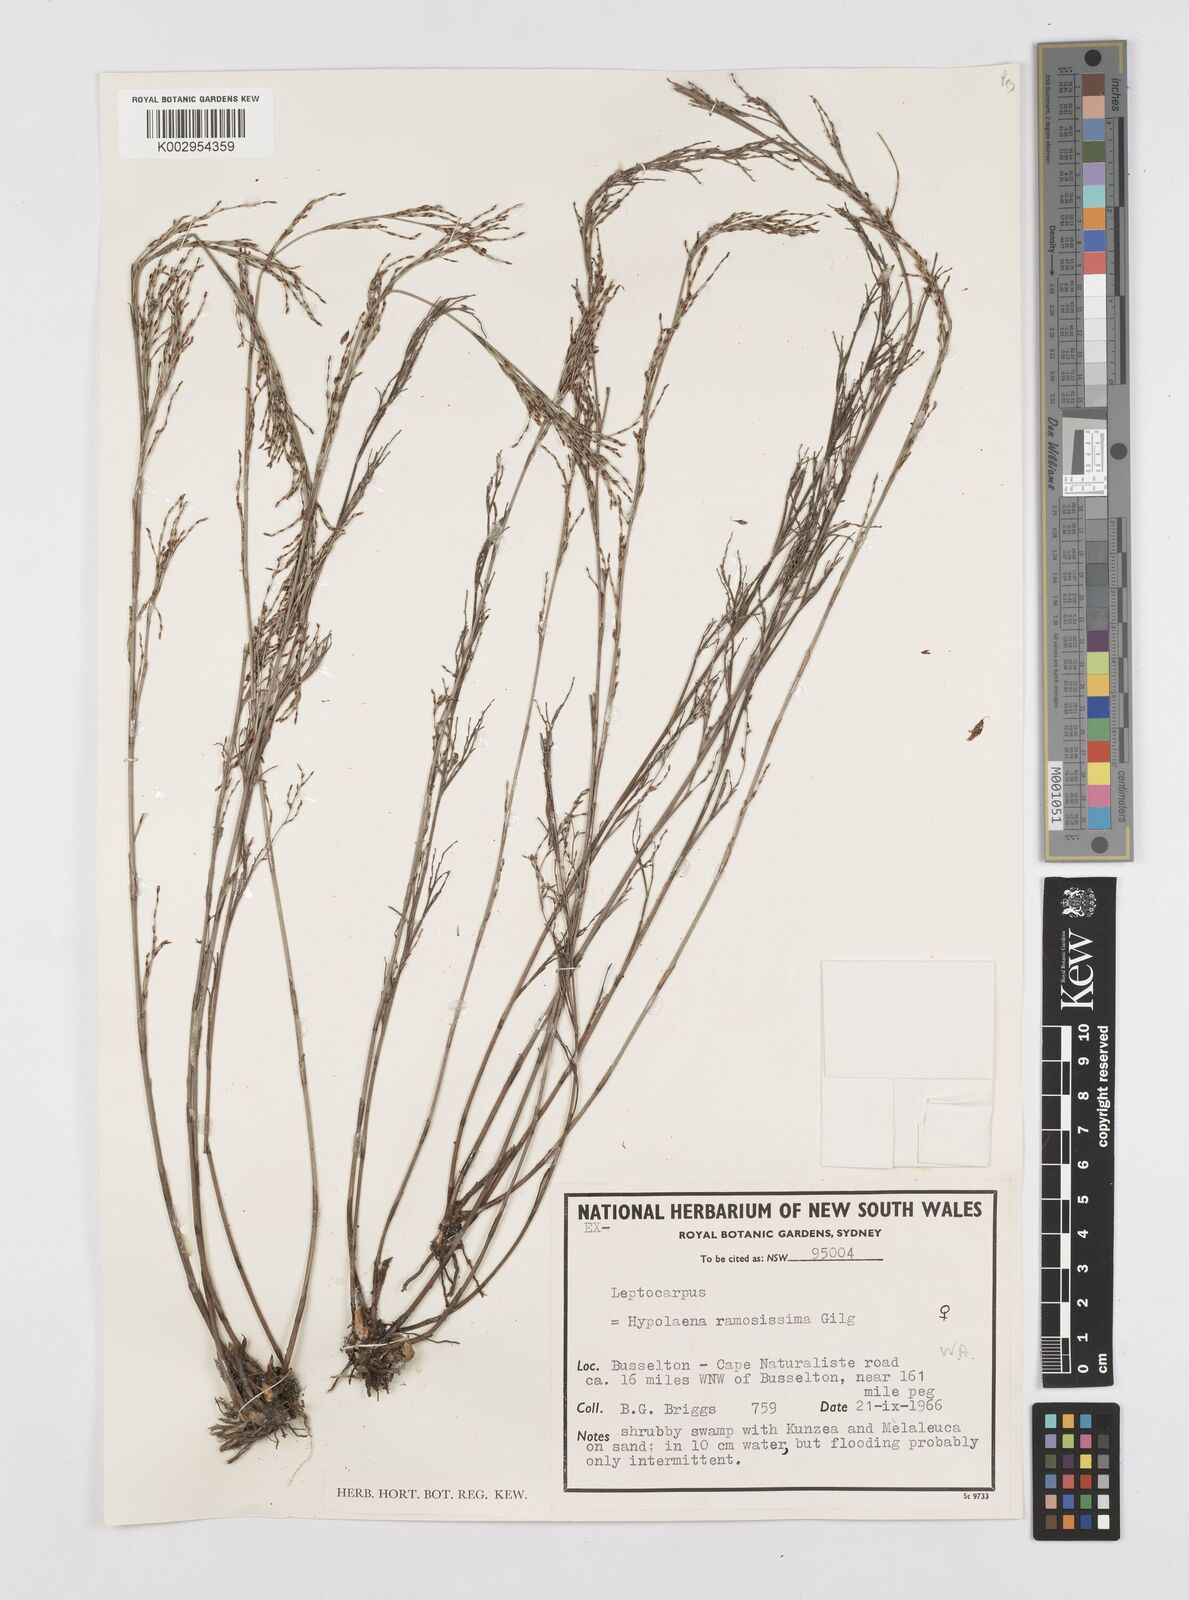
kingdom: Plantae
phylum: Tracheophyta
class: Liliopsida
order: Poales
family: Restionaceae
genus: Leptocarpus
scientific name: Leptocarpus
